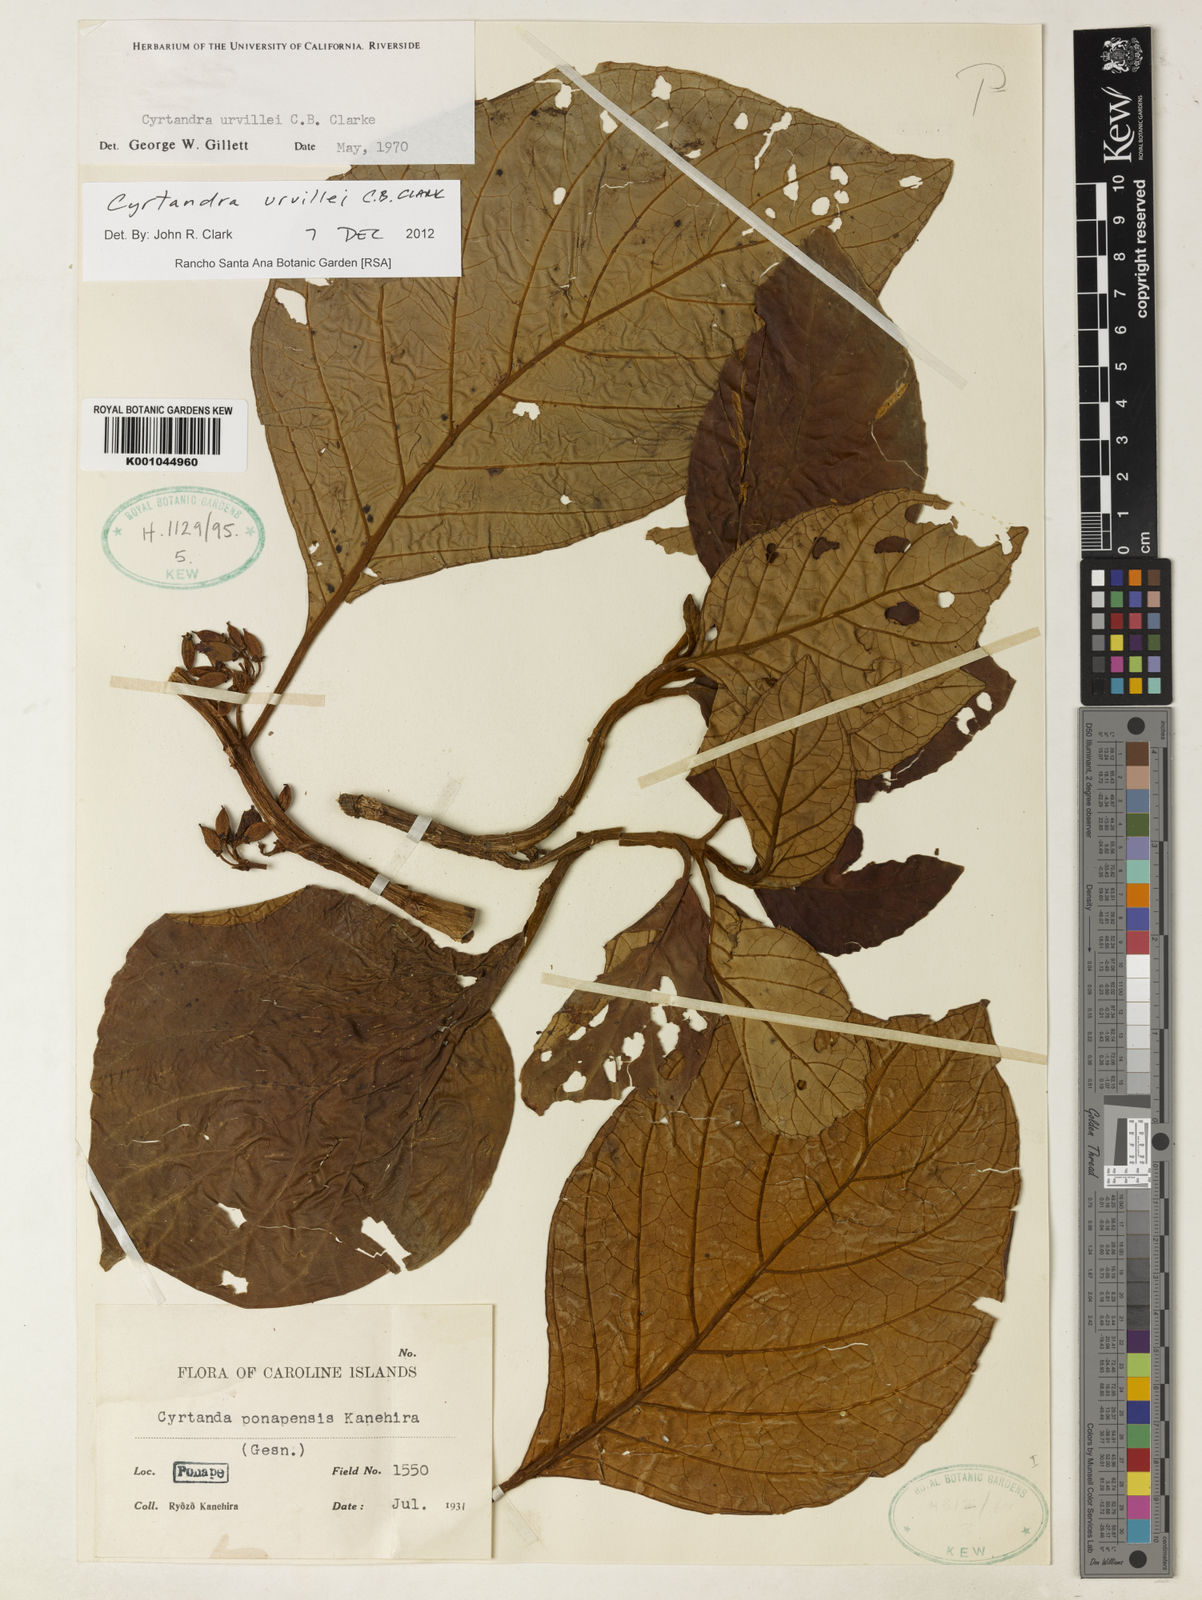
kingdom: Plantae
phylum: Tracheophyta
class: Magnoliopsida
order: Lamiales
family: Gesneriaceae
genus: Cyrtandra
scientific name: Cyrtandra urvillei
